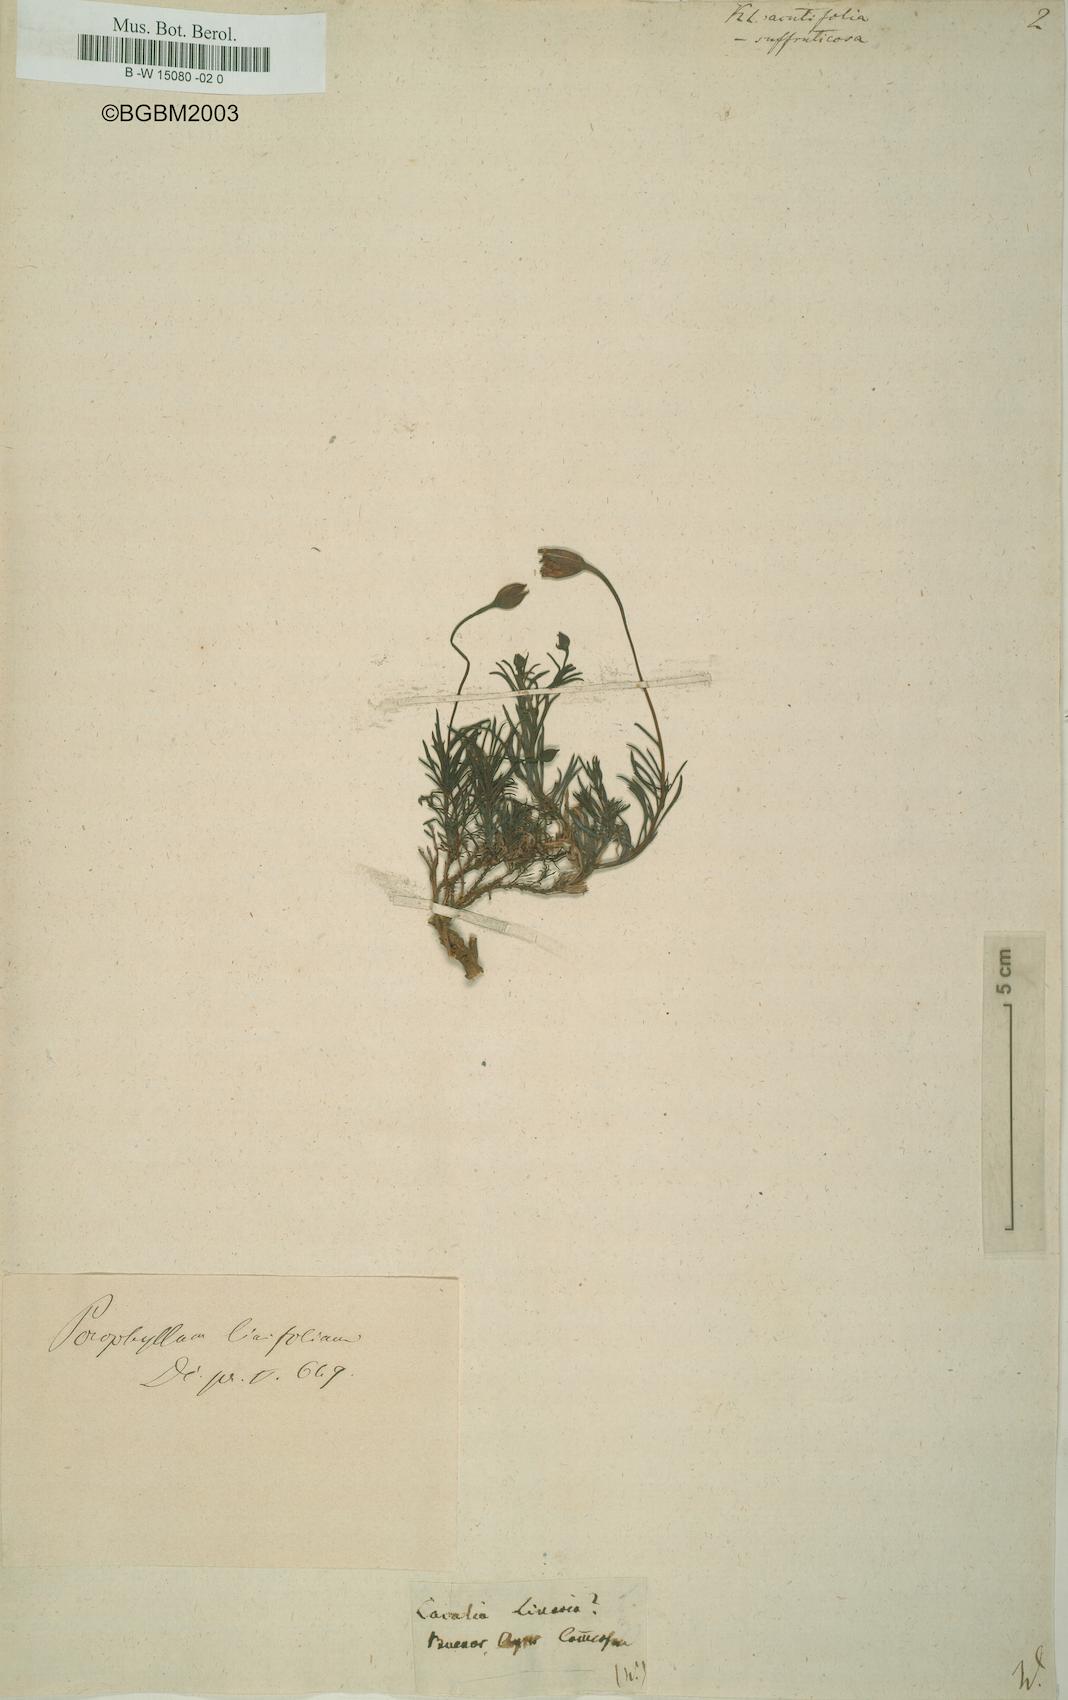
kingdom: Plantae
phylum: Tracheophyta
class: Magnoliopsida
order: Asterales
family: Asteraceae
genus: Kleinia
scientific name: Kleinia suffruticosa
